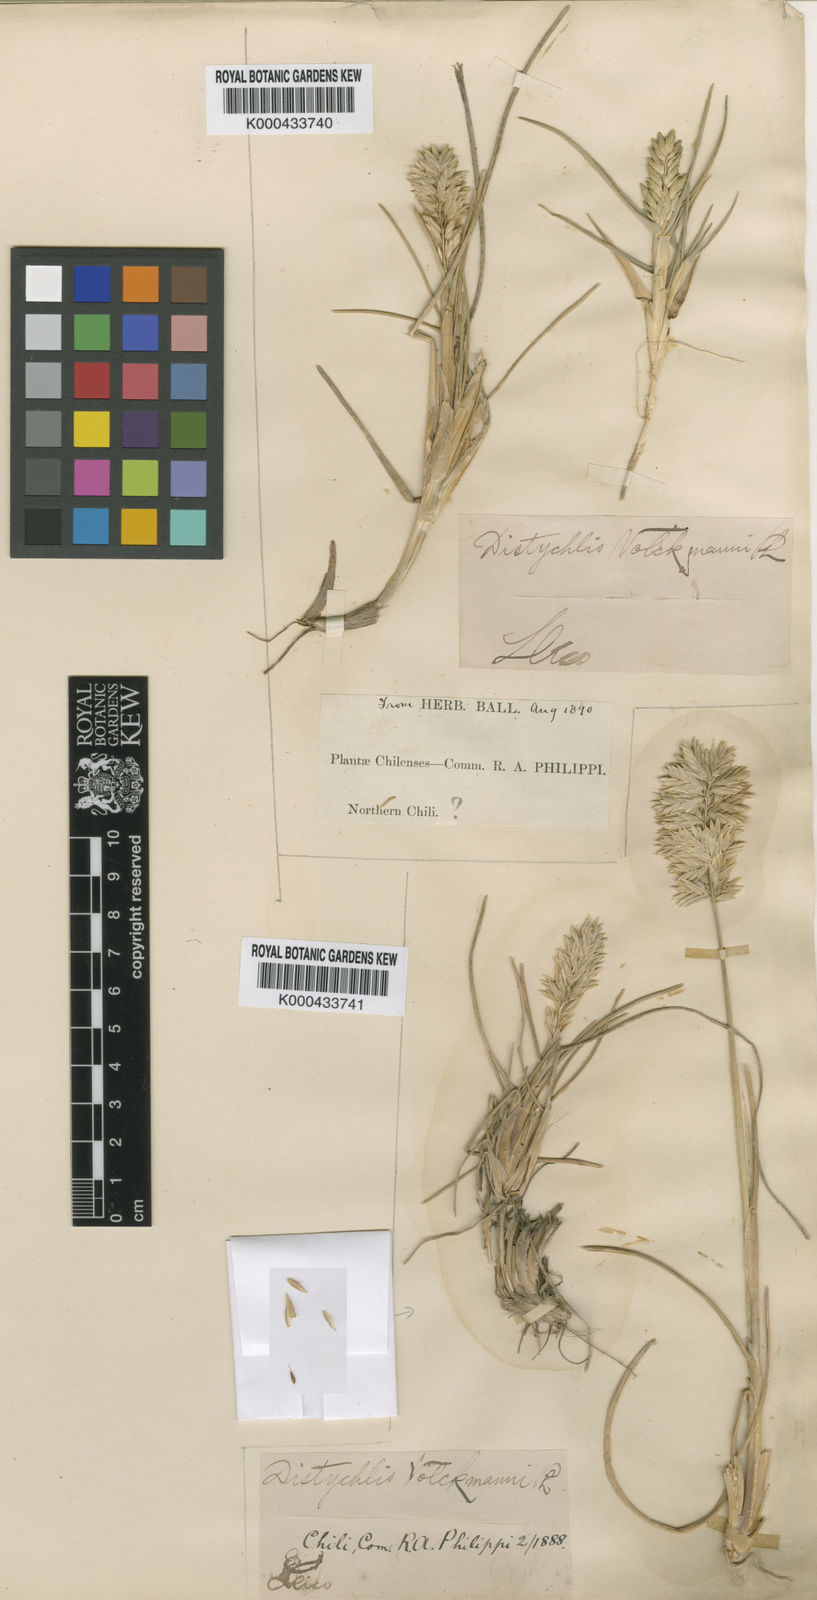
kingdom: Plantae
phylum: Tracheophyta
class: Liliopsida
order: Poales
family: Poaceae
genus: Poa
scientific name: Poa cumingii
